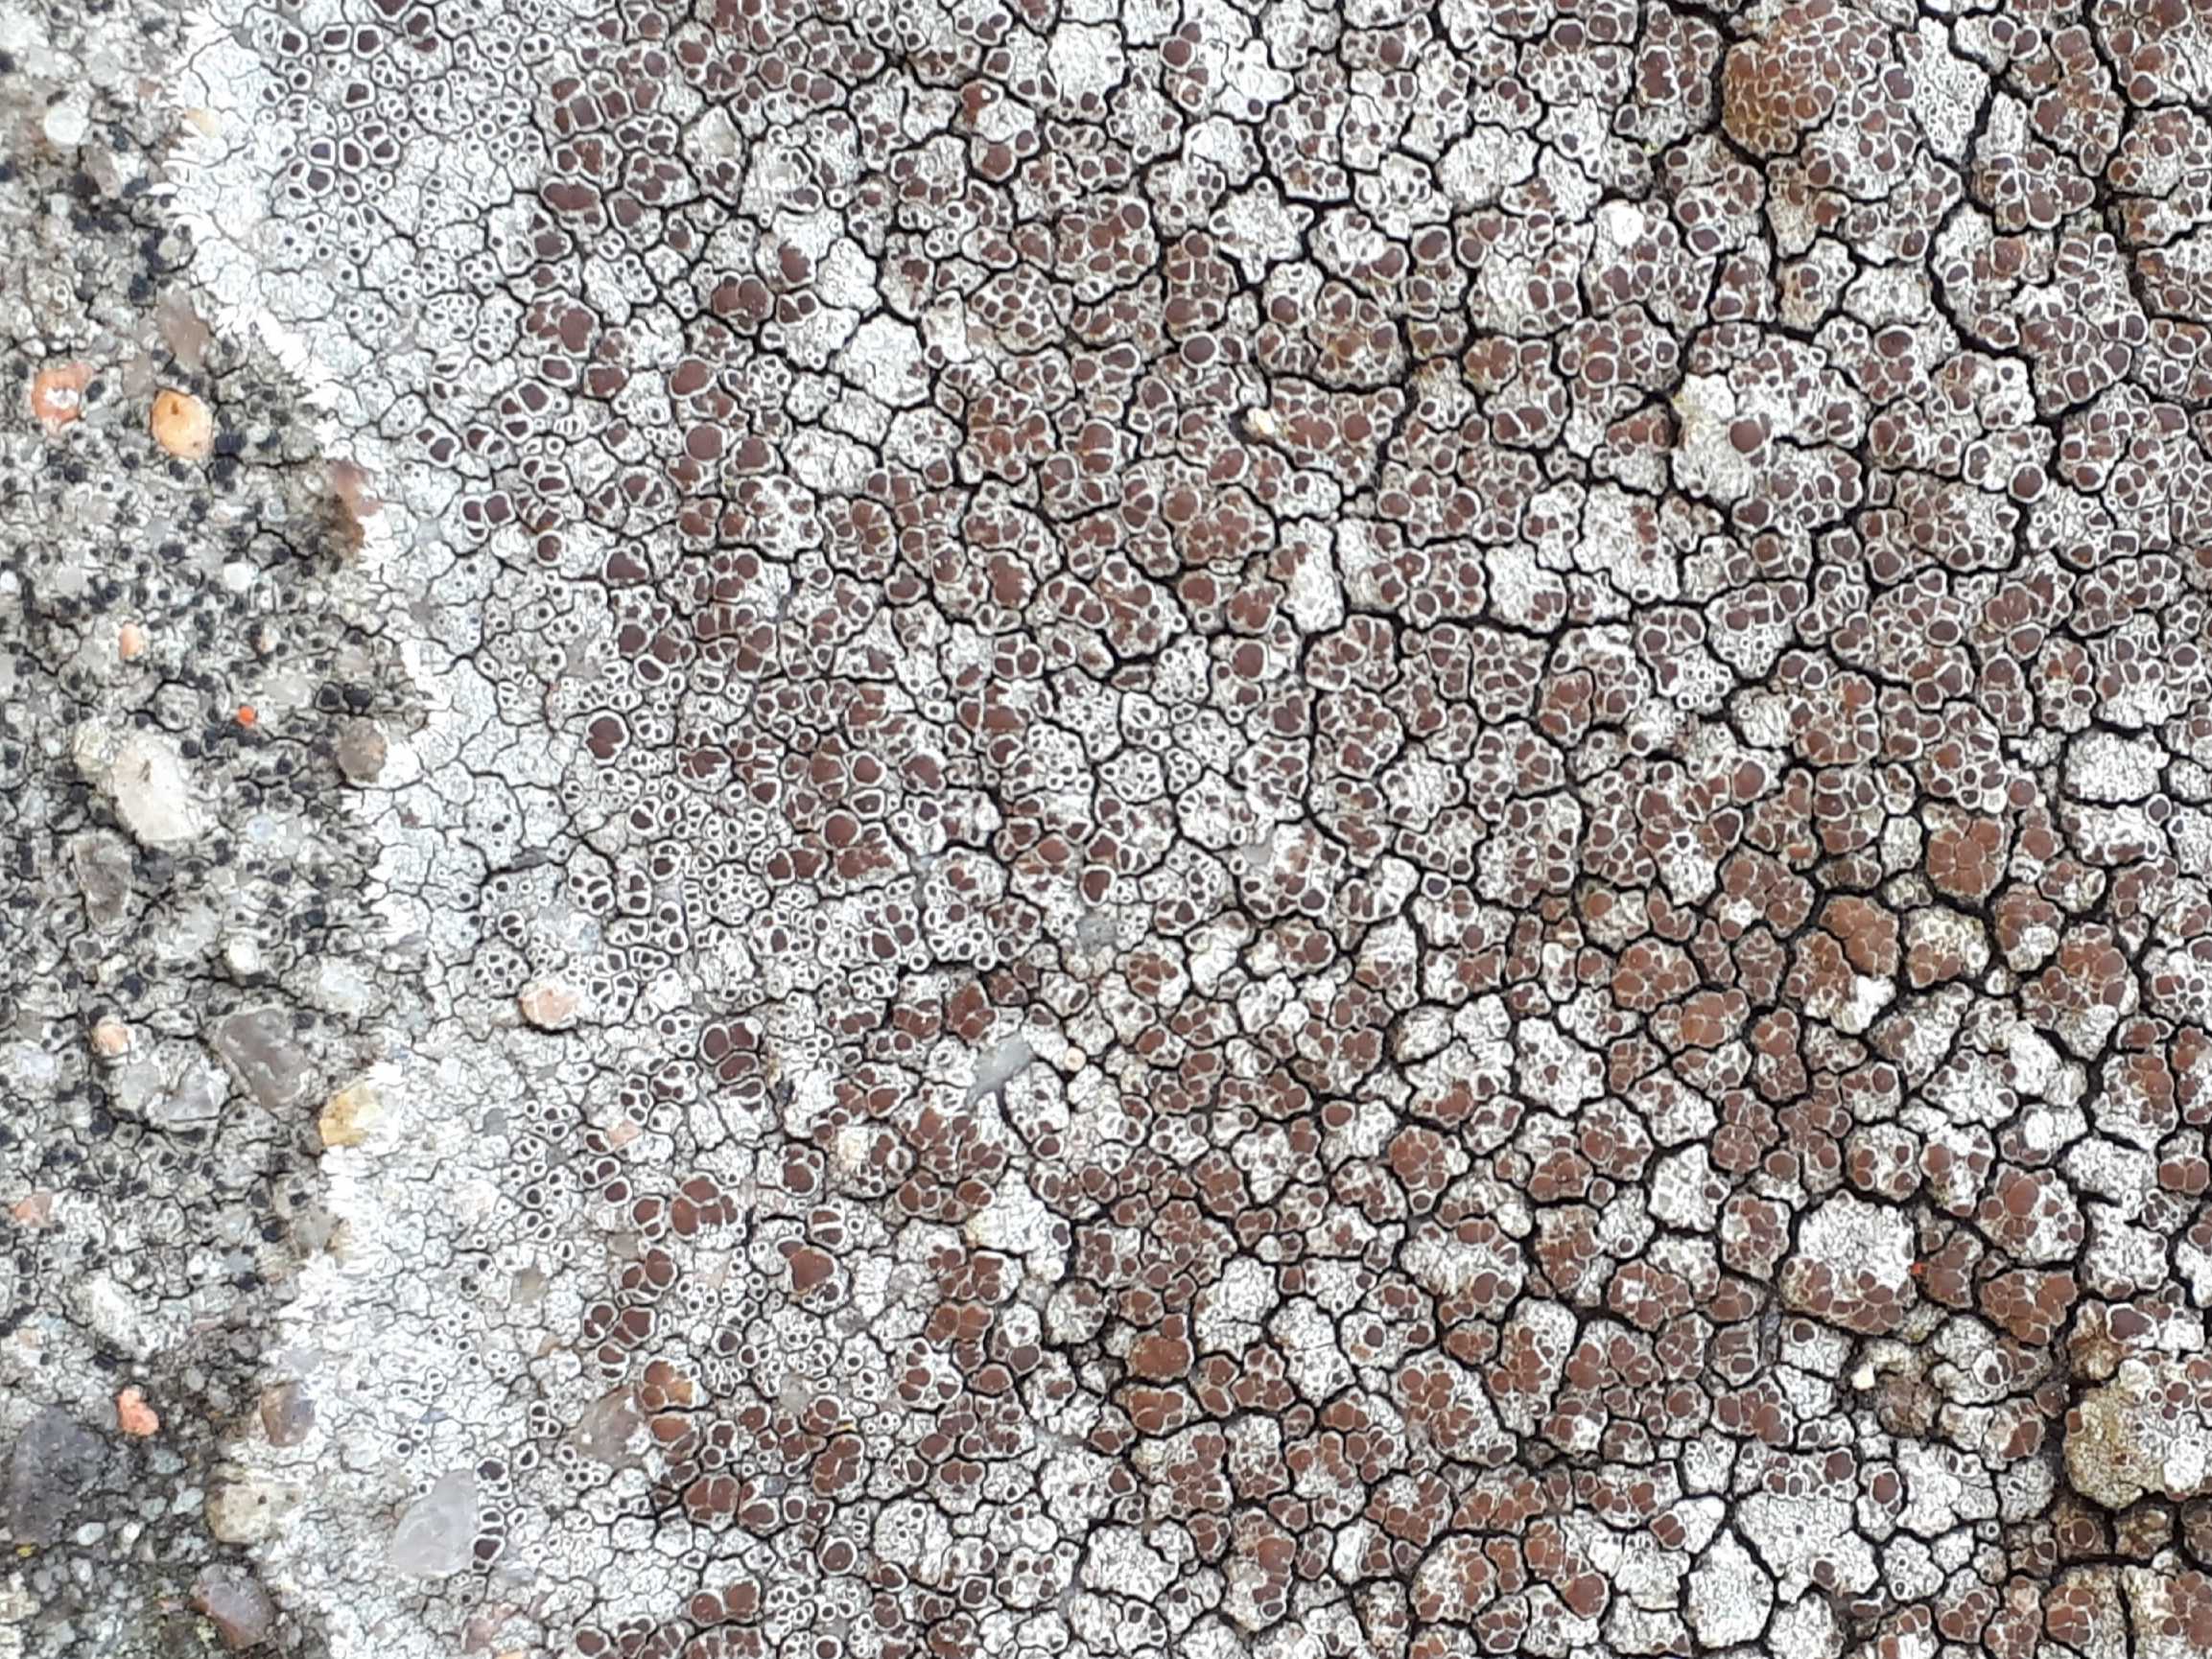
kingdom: Fungi
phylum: Ascomycota
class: Lecanoromycetes
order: Lecanorales
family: Lecanoraceae
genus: Lecanora
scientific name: Lecanora campestris
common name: mur-kantskivelav
